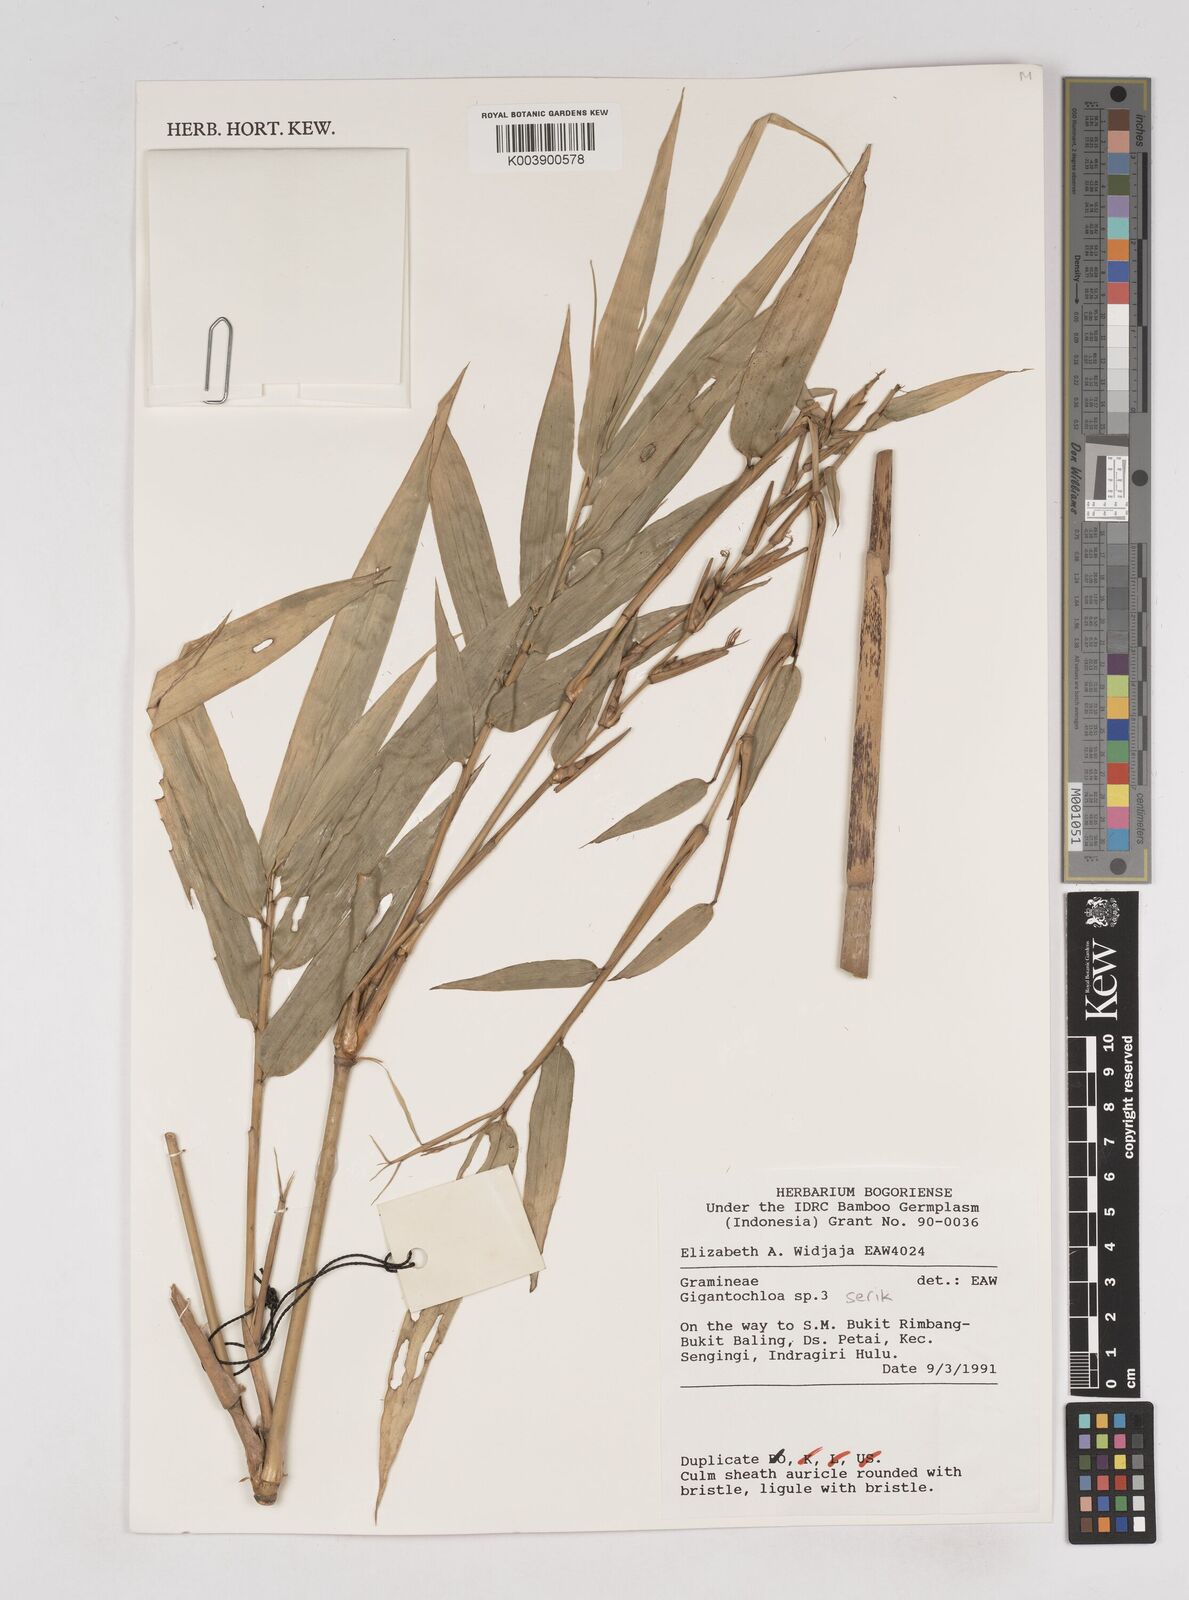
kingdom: Plantae
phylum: Tracheophyta
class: Liliopsida
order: Poales
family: Poaceae
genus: Gigantochloa
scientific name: Gigantochloa serik
